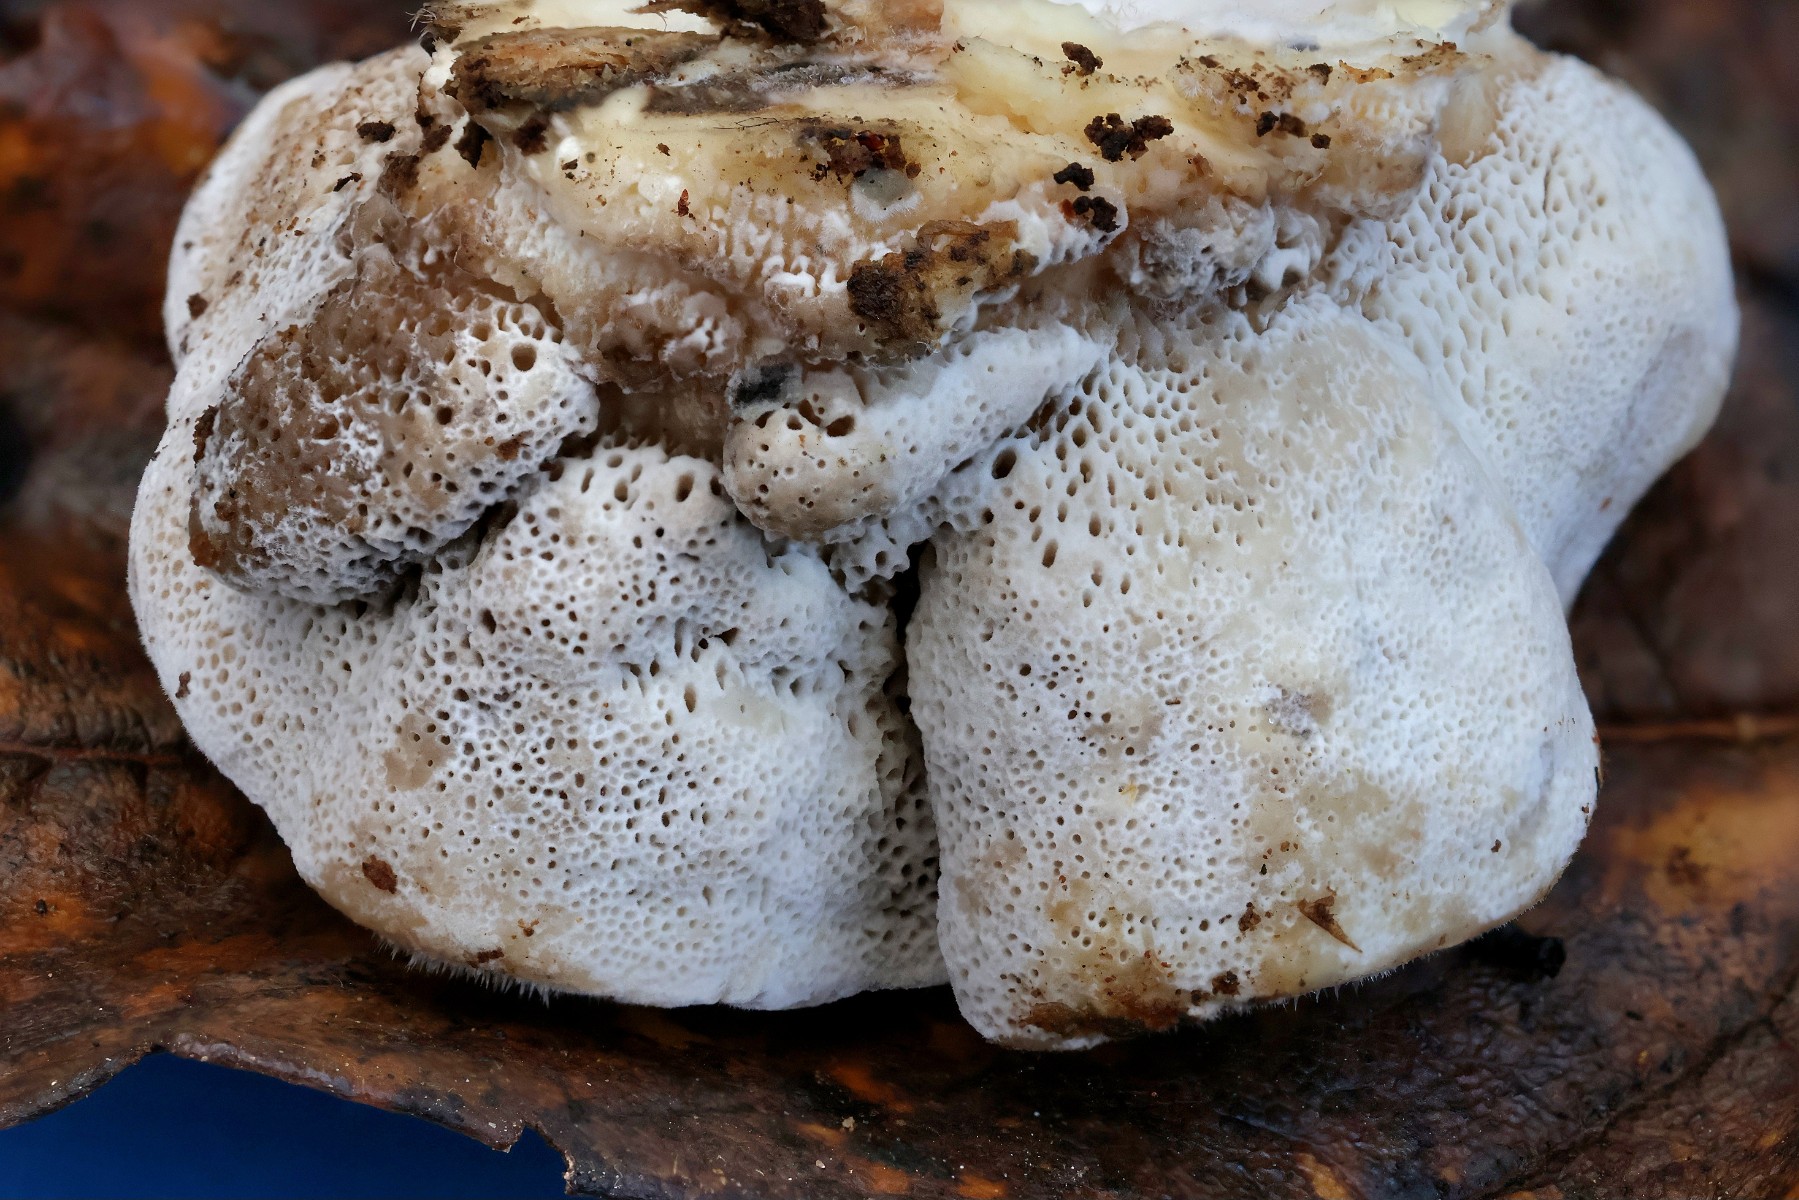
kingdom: Fungi
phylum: Basidiomycota
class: Agaricomycetes
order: Polyporales
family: Polyporaceae
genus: Trametes
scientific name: Trametes hirsuta
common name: håret læderporesvamp
